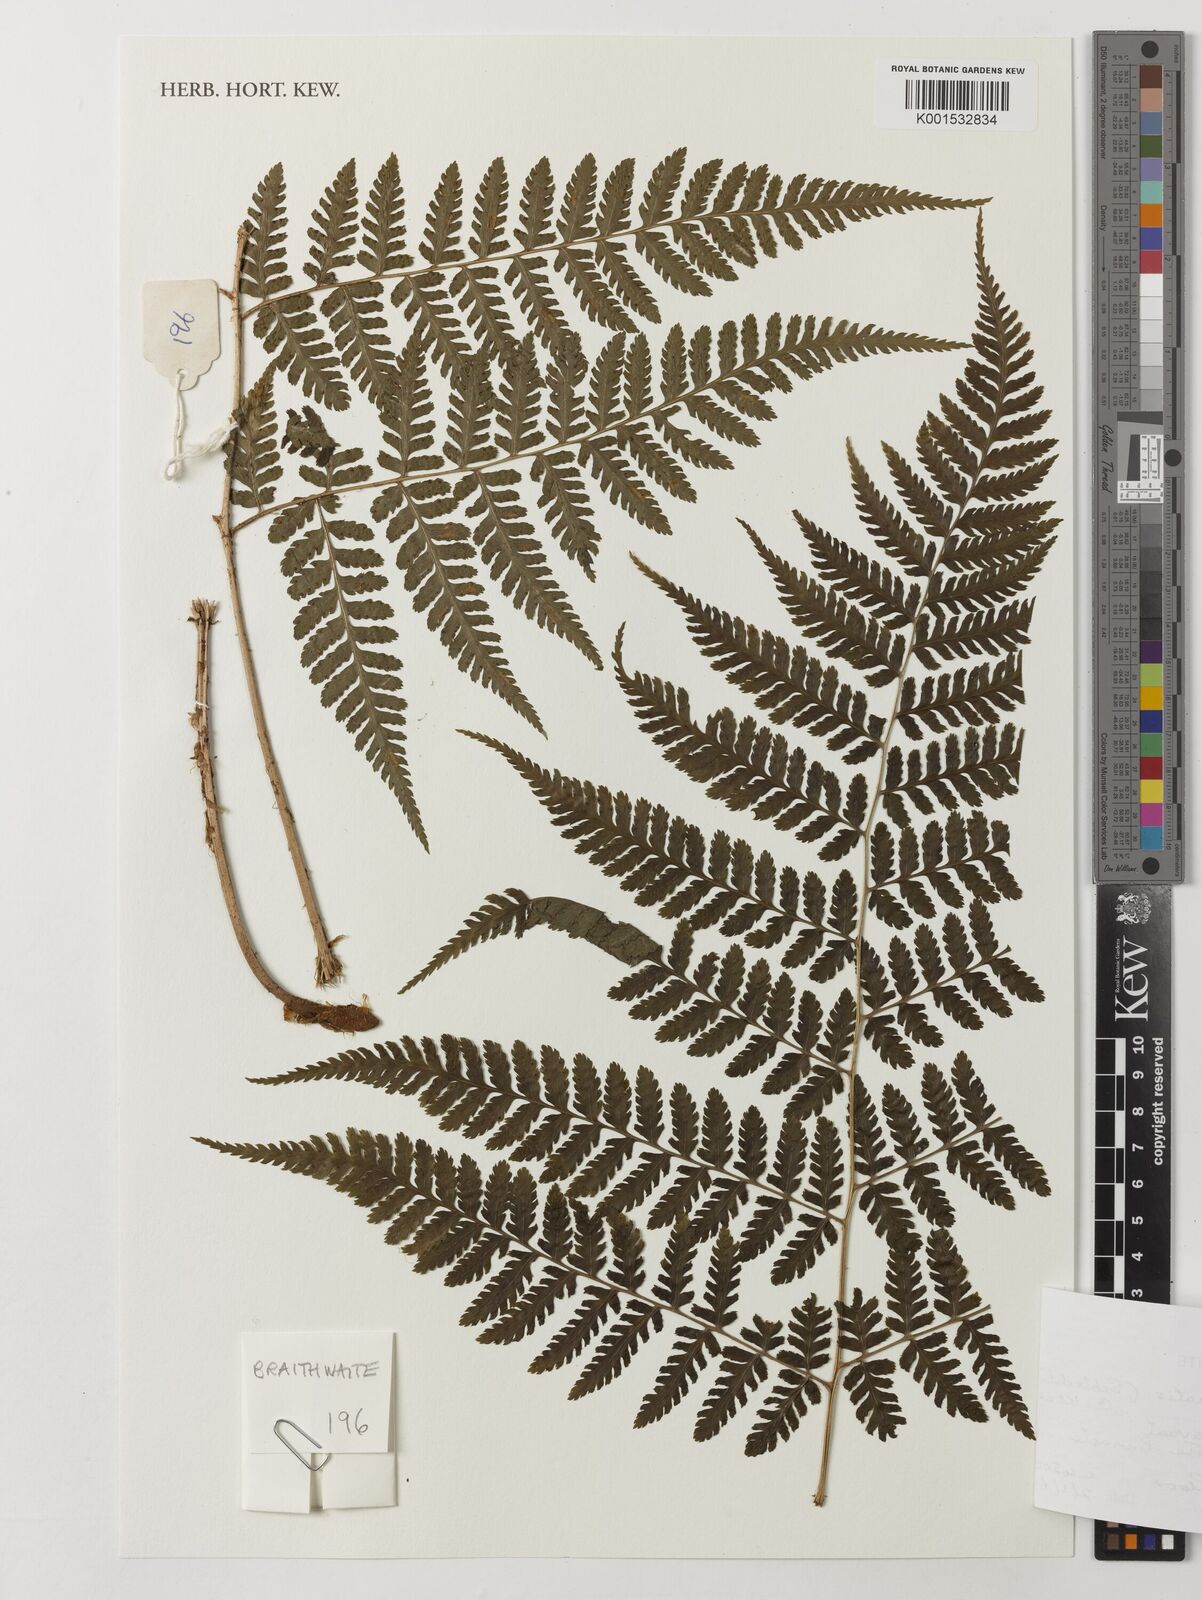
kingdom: Plantae
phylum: Tracheophyta
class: Polypodiopsida
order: Polypodiales
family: Dryopteridaceae
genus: Dryopteris
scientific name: Dryopteris inaequalis
